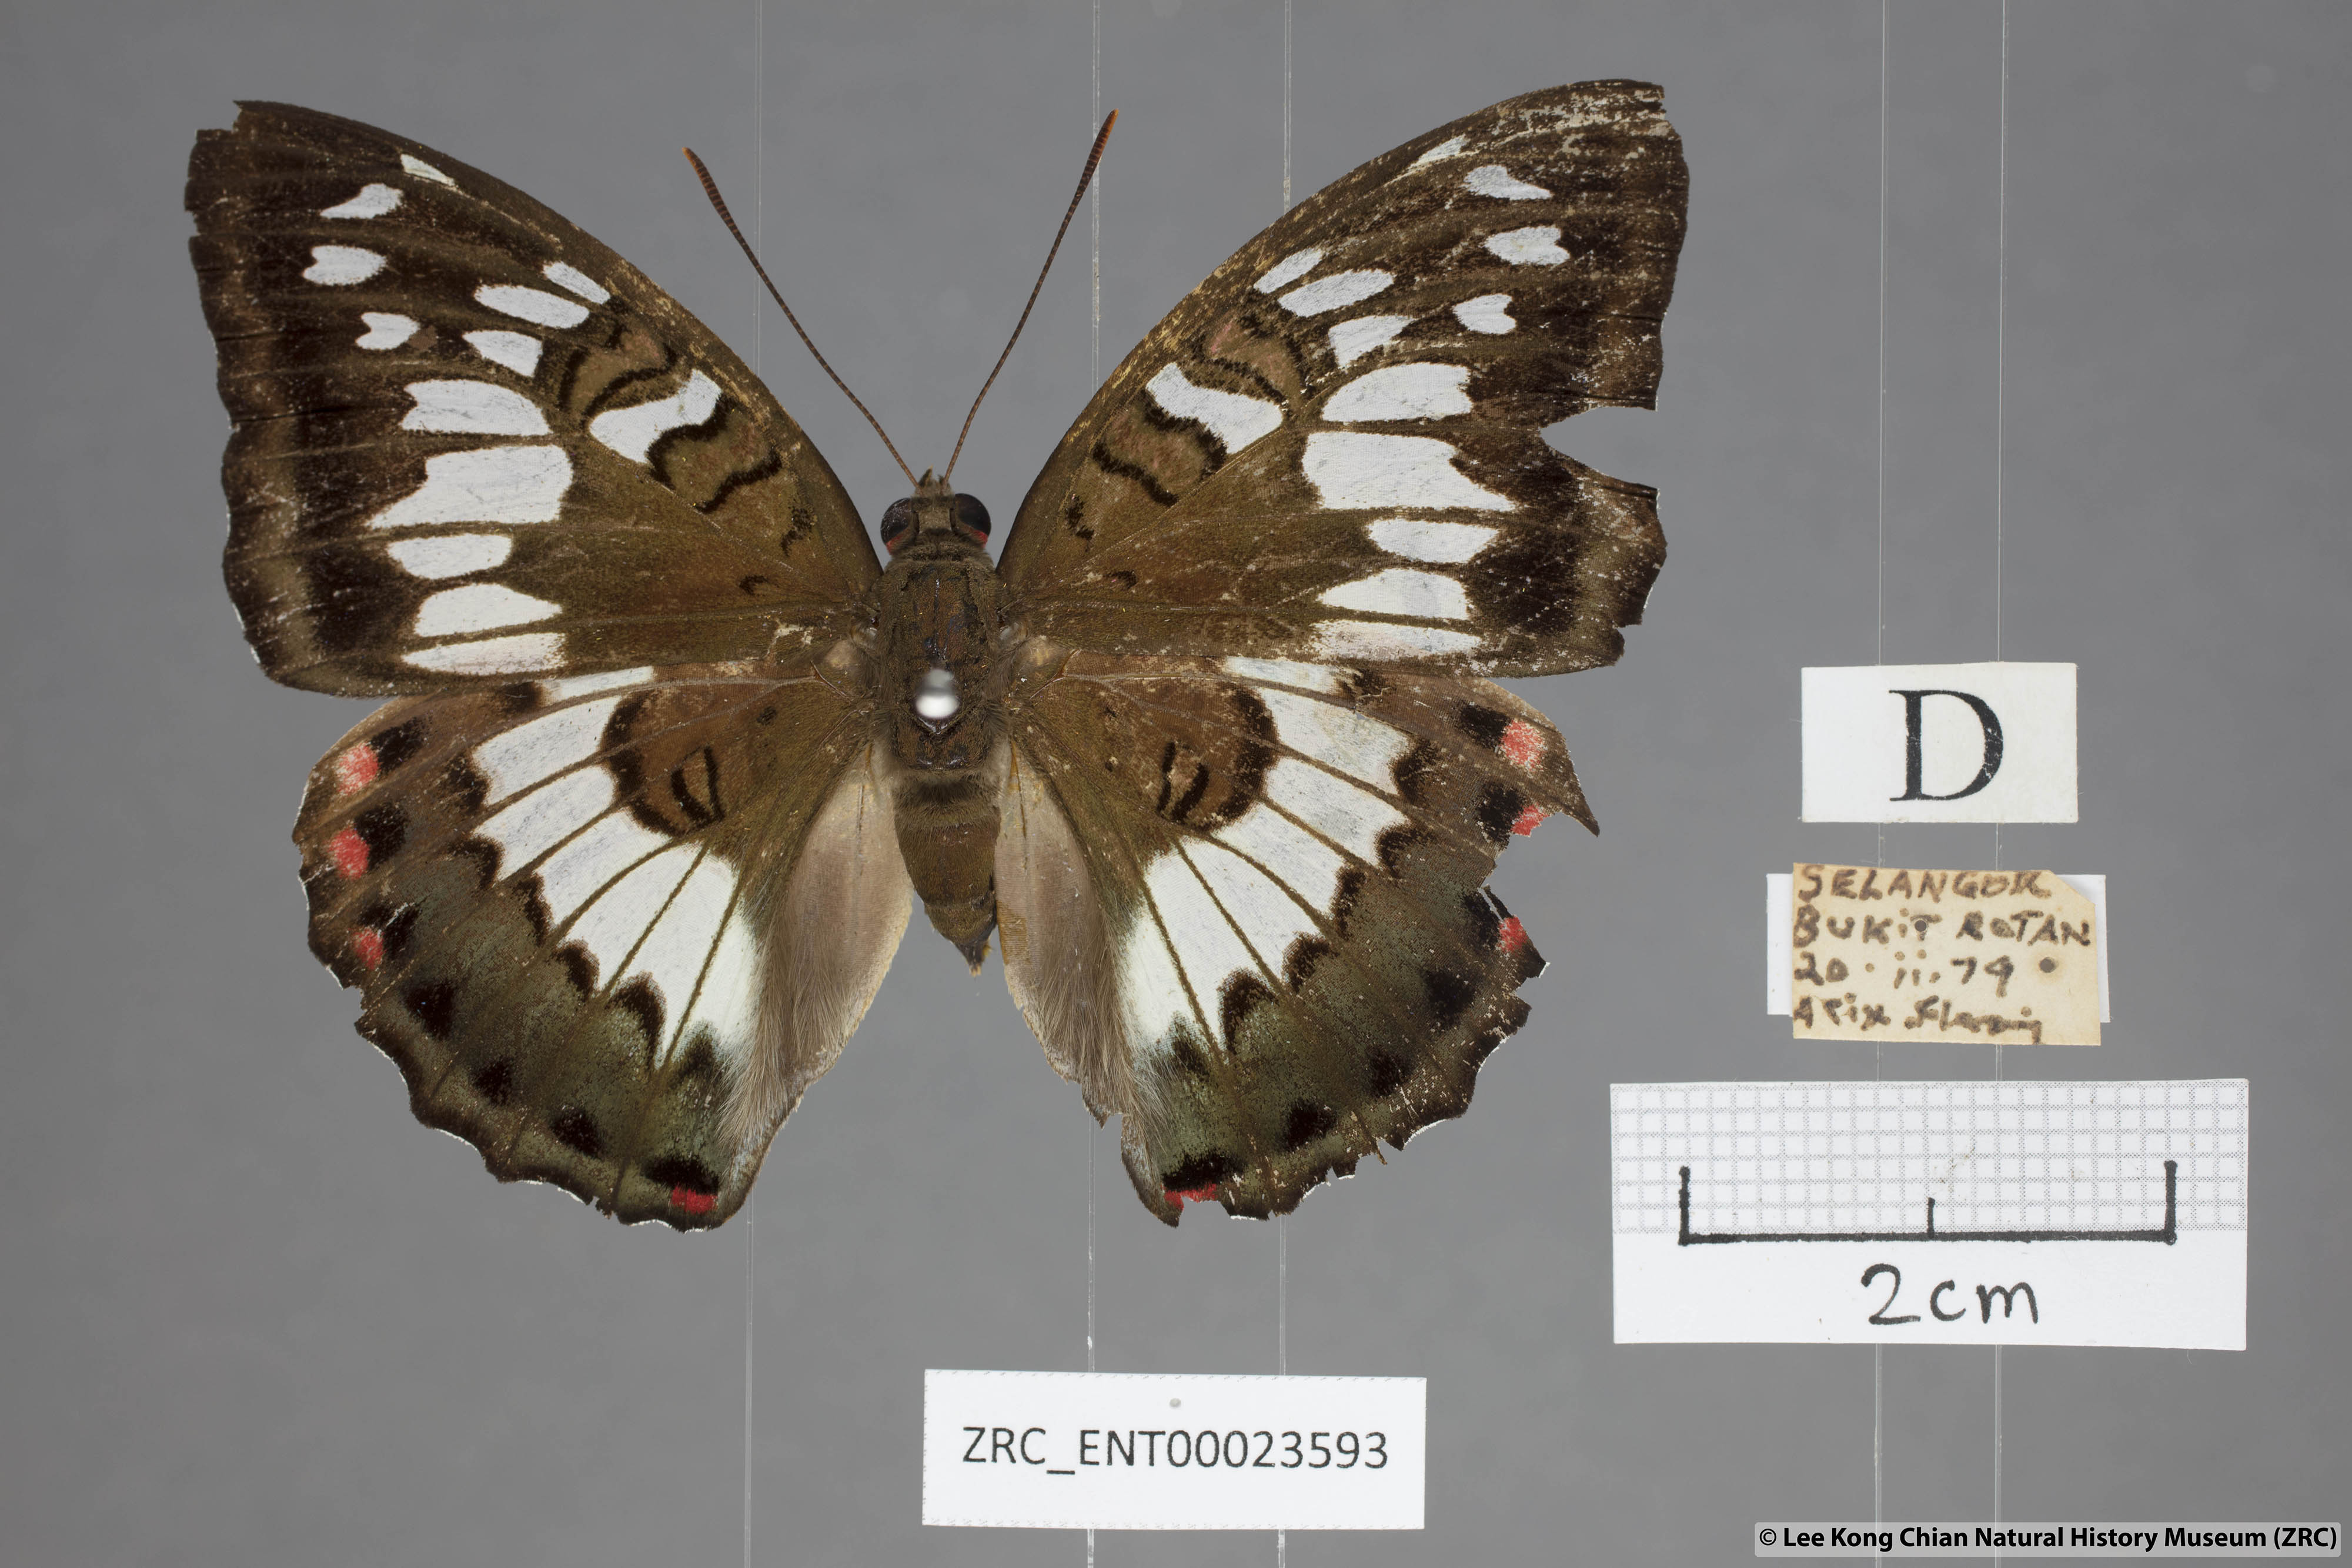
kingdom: Animalia
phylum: Arthropoda
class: Insecta
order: Lepidoptera
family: Nymphalidae
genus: Euthalia
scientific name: Euthalia adonia
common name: Green baron
